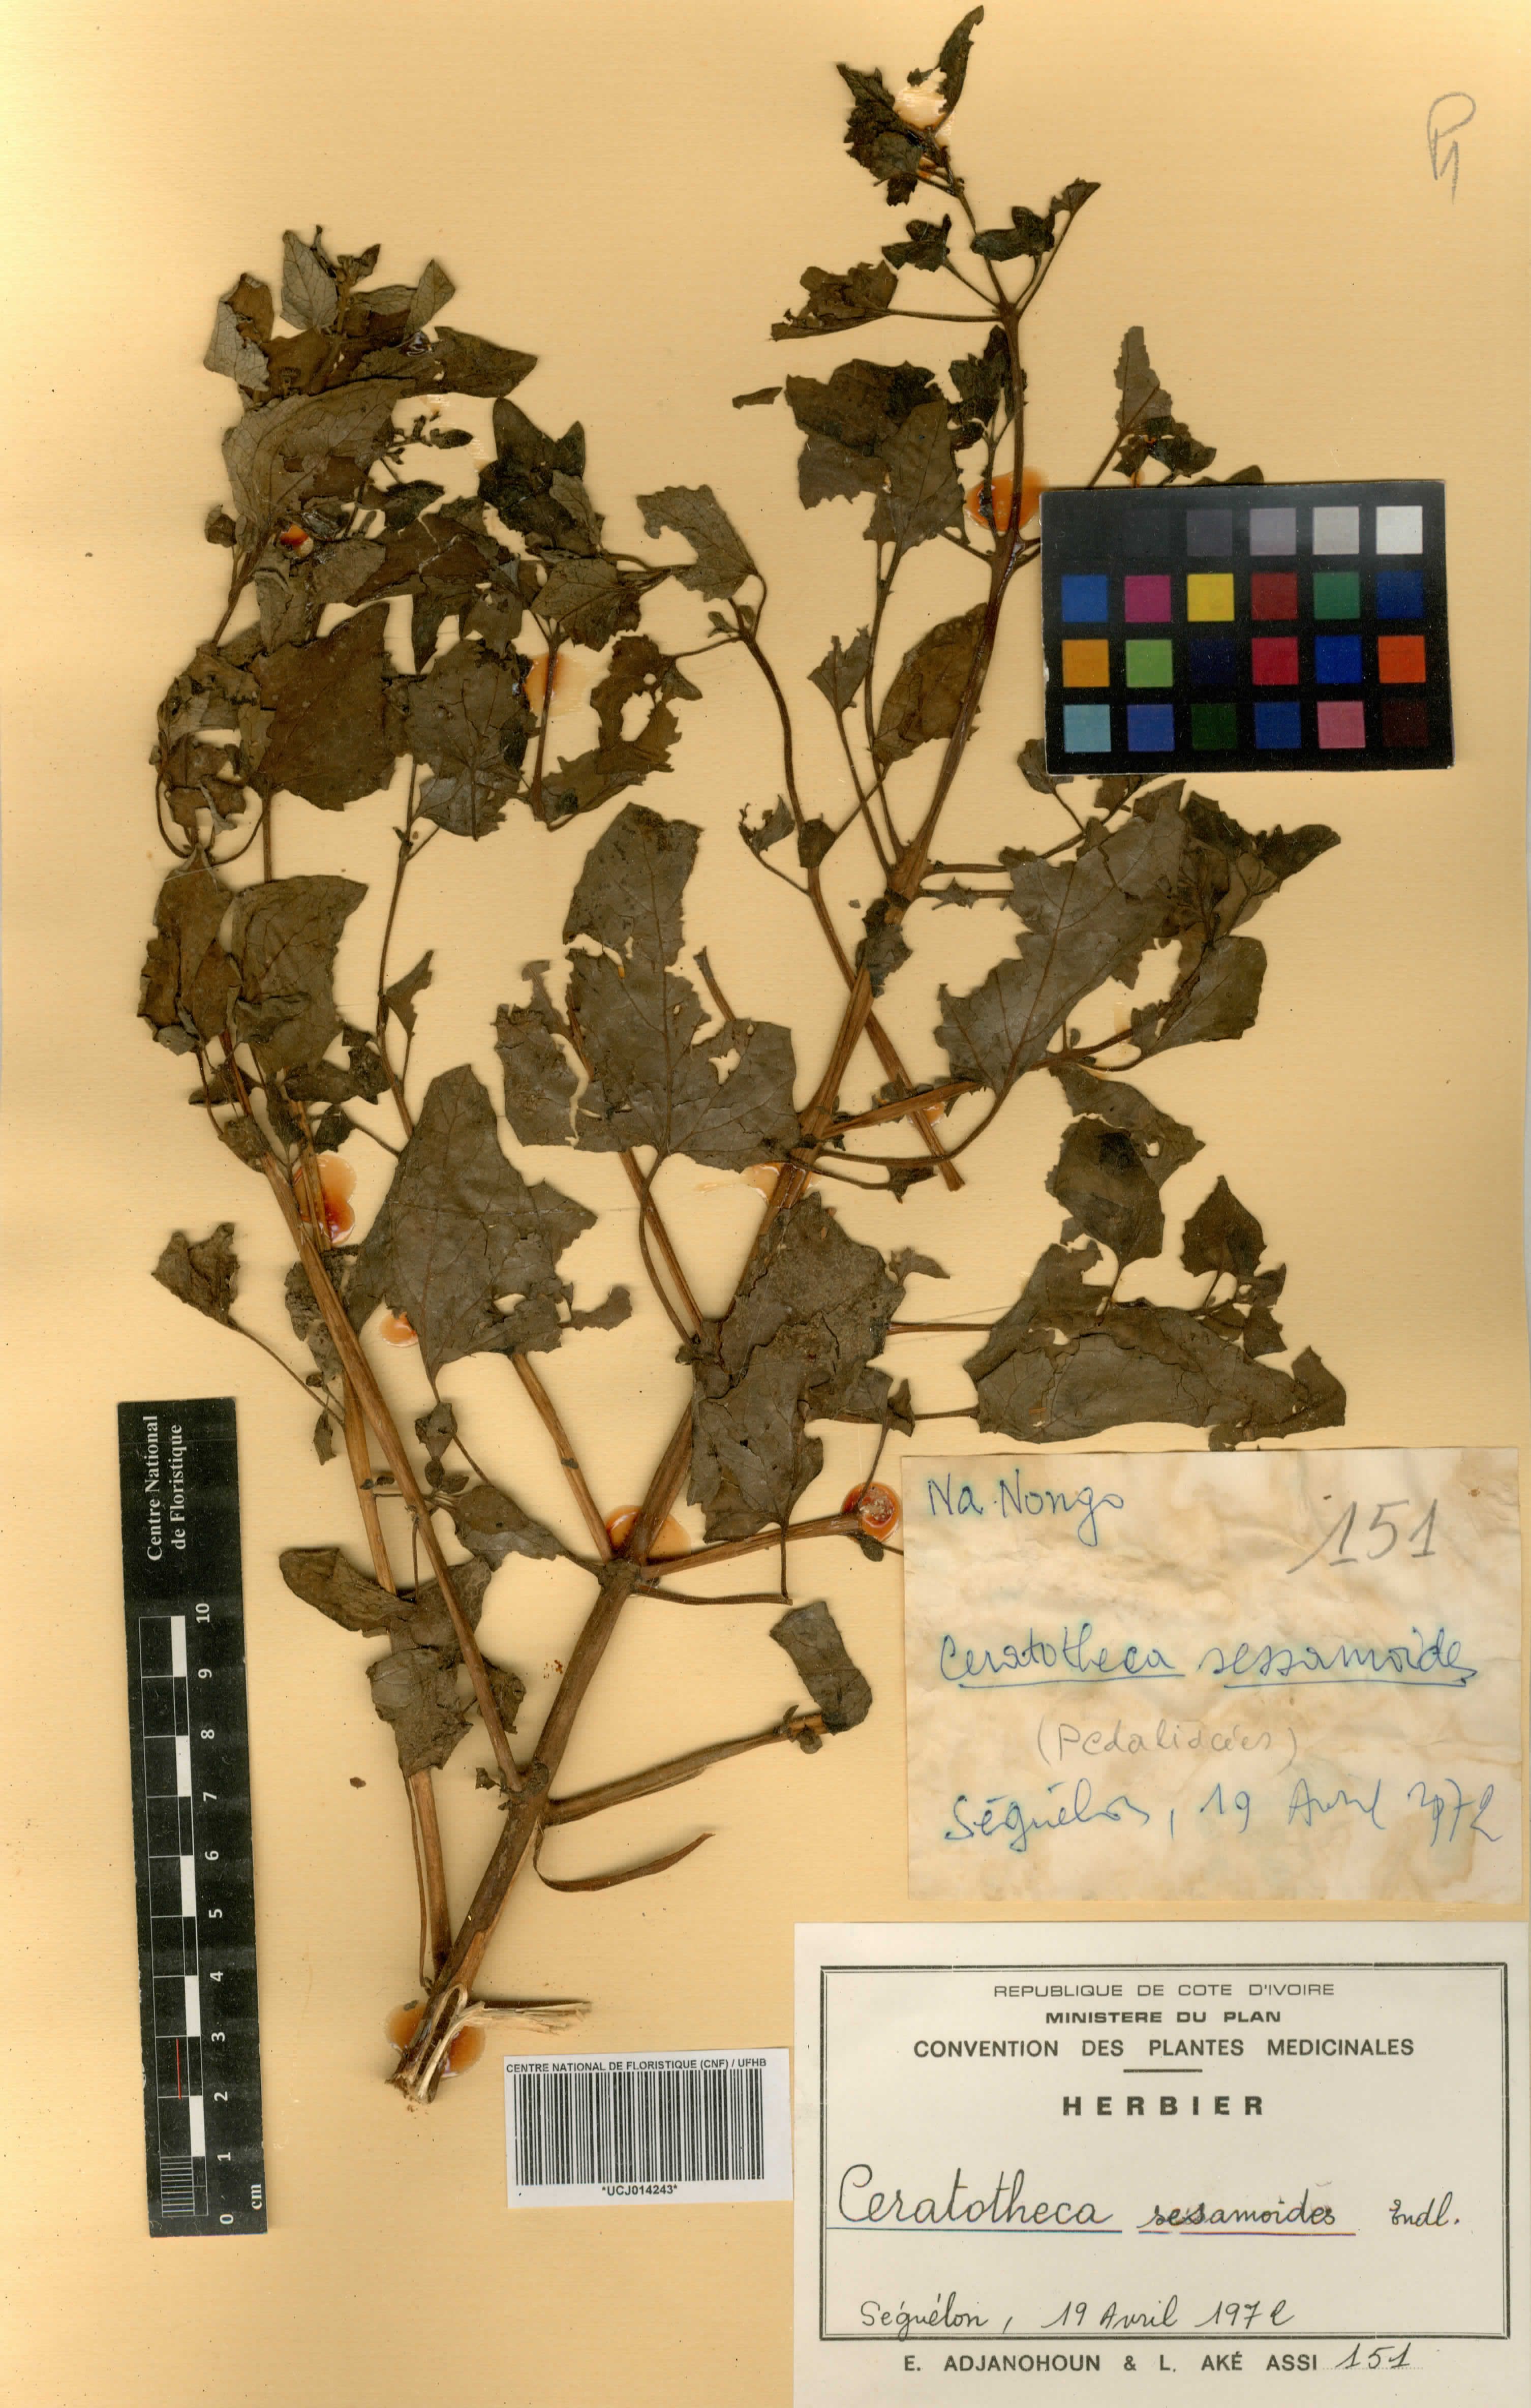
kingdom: Plantae
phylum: Tracheophyta
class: Magnoliopsida
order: Lamiales
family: Pedaliaceae
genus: Sesamum
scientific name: Sesamum sesamoides
